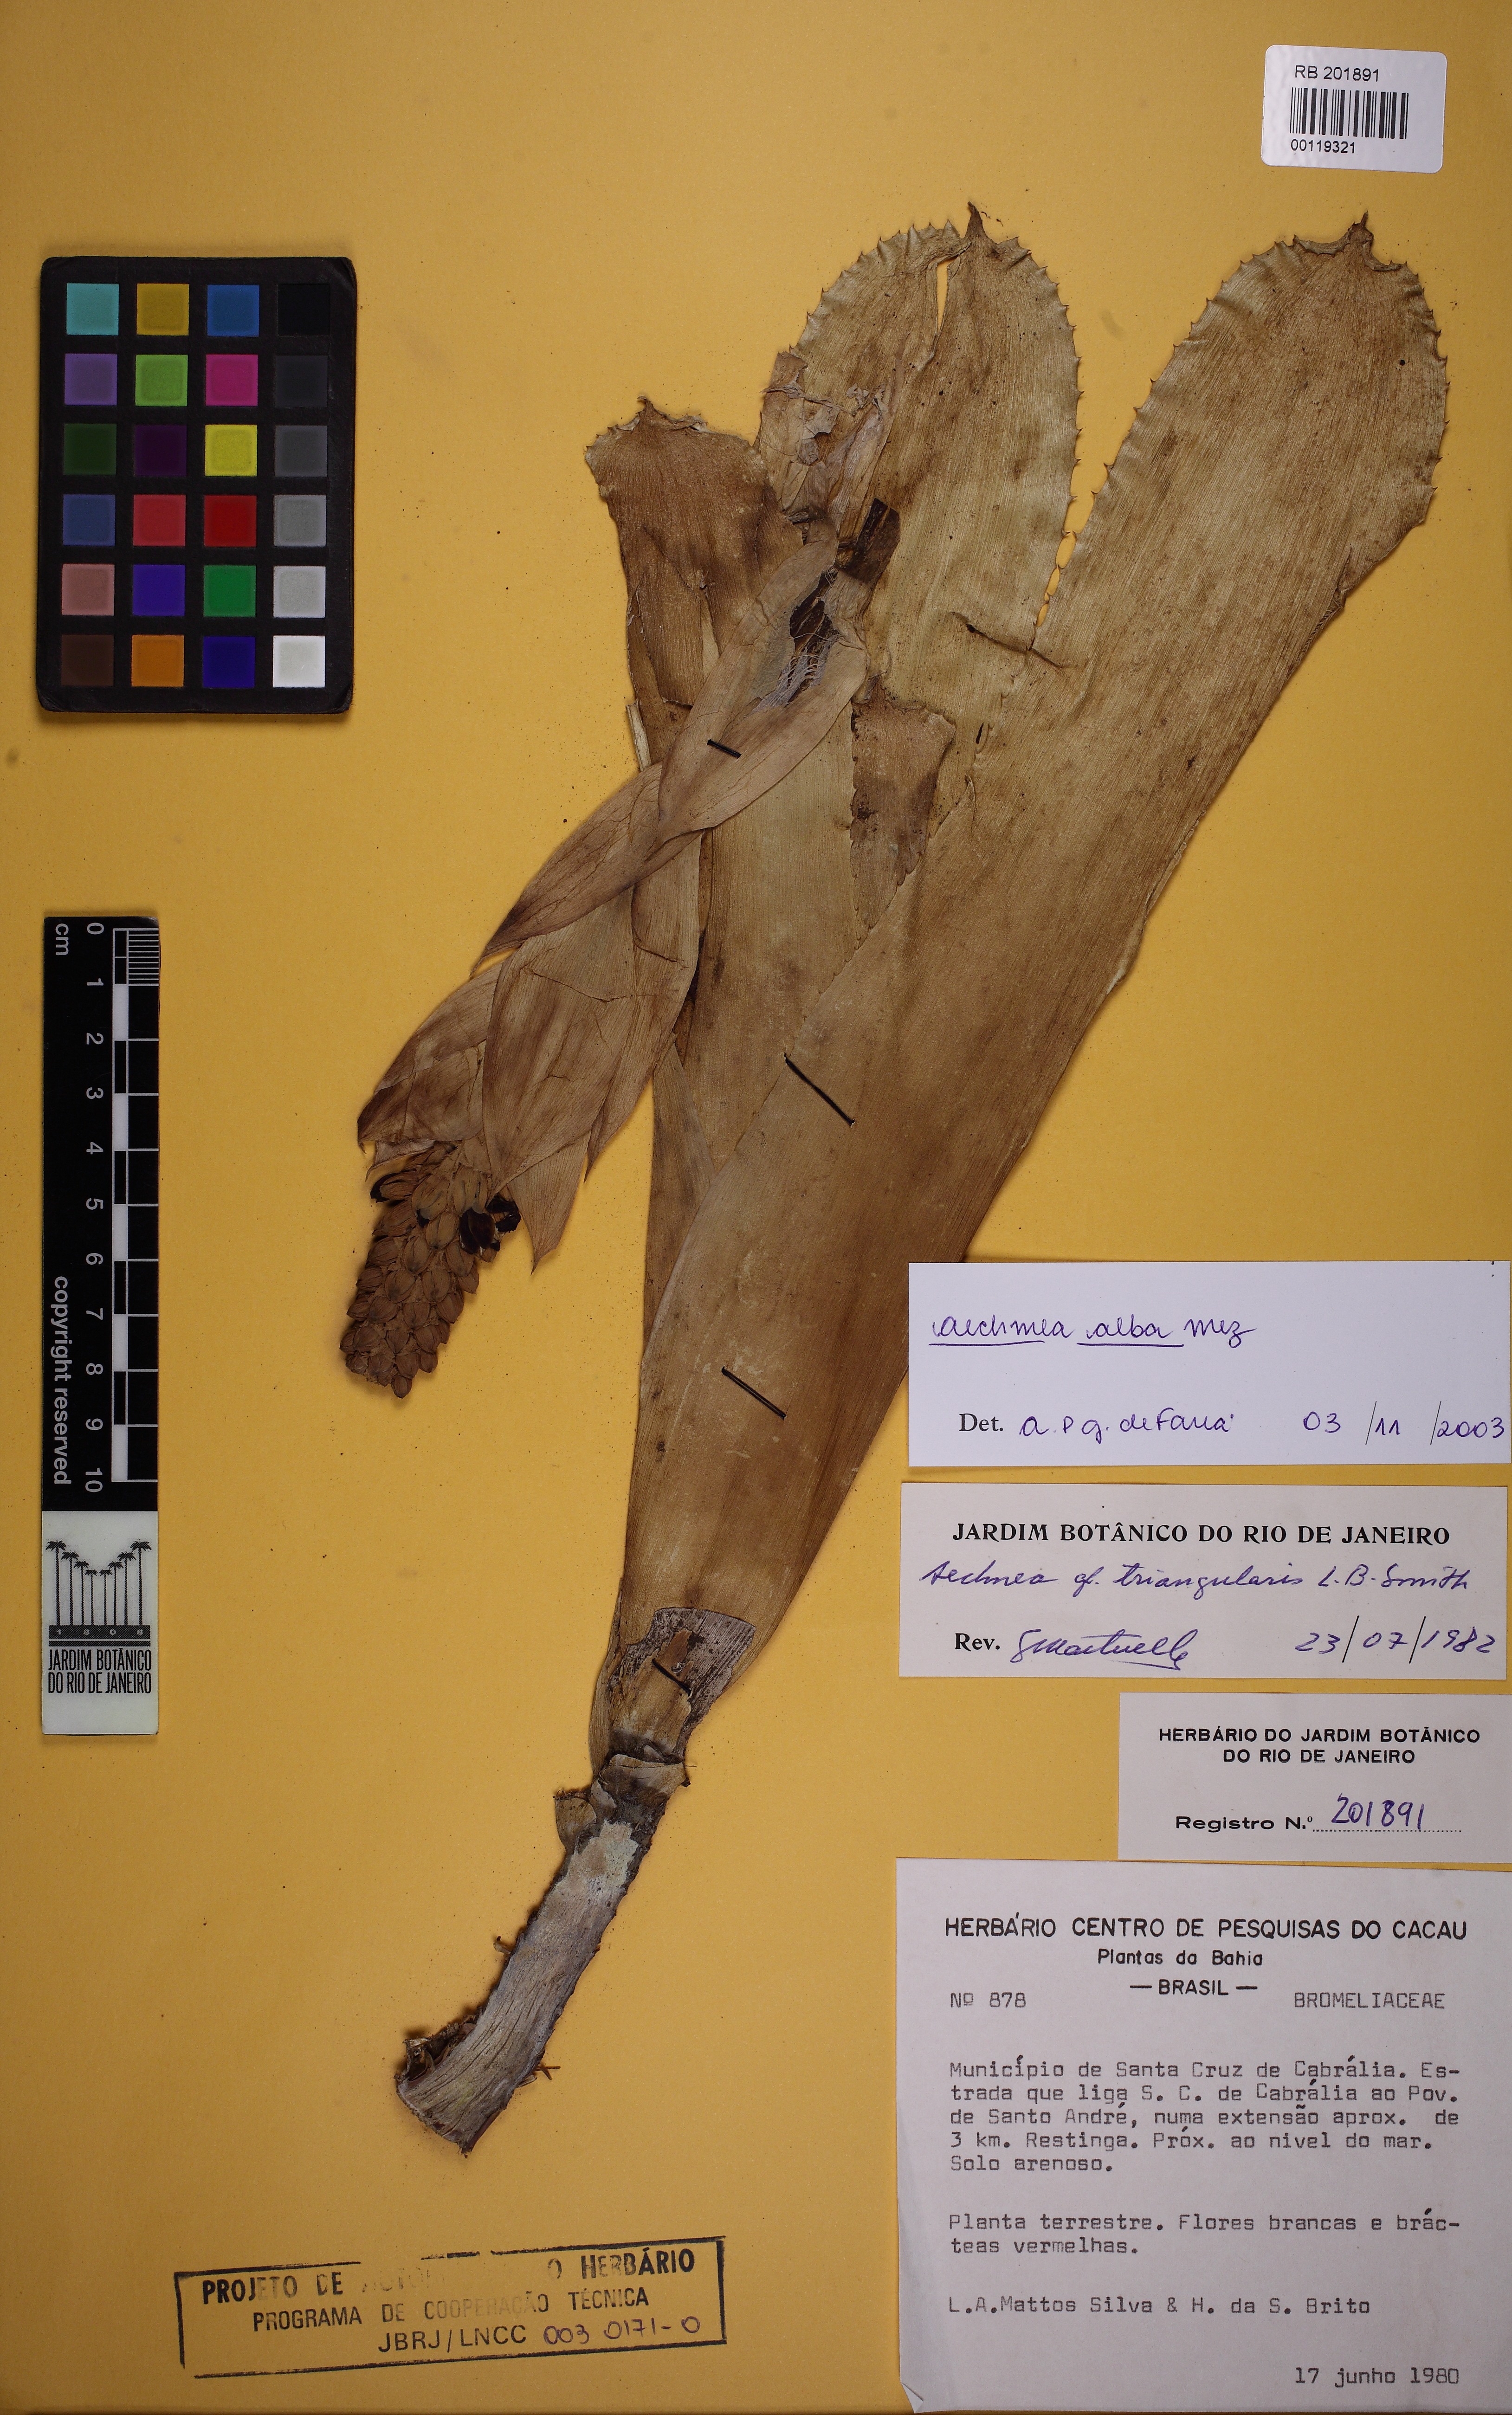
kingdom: Plantae
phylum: Tracheophyta
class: Liliopsida
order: Poales
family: Bromeliaceae
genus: Aechmea
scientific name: Aechmea alba
